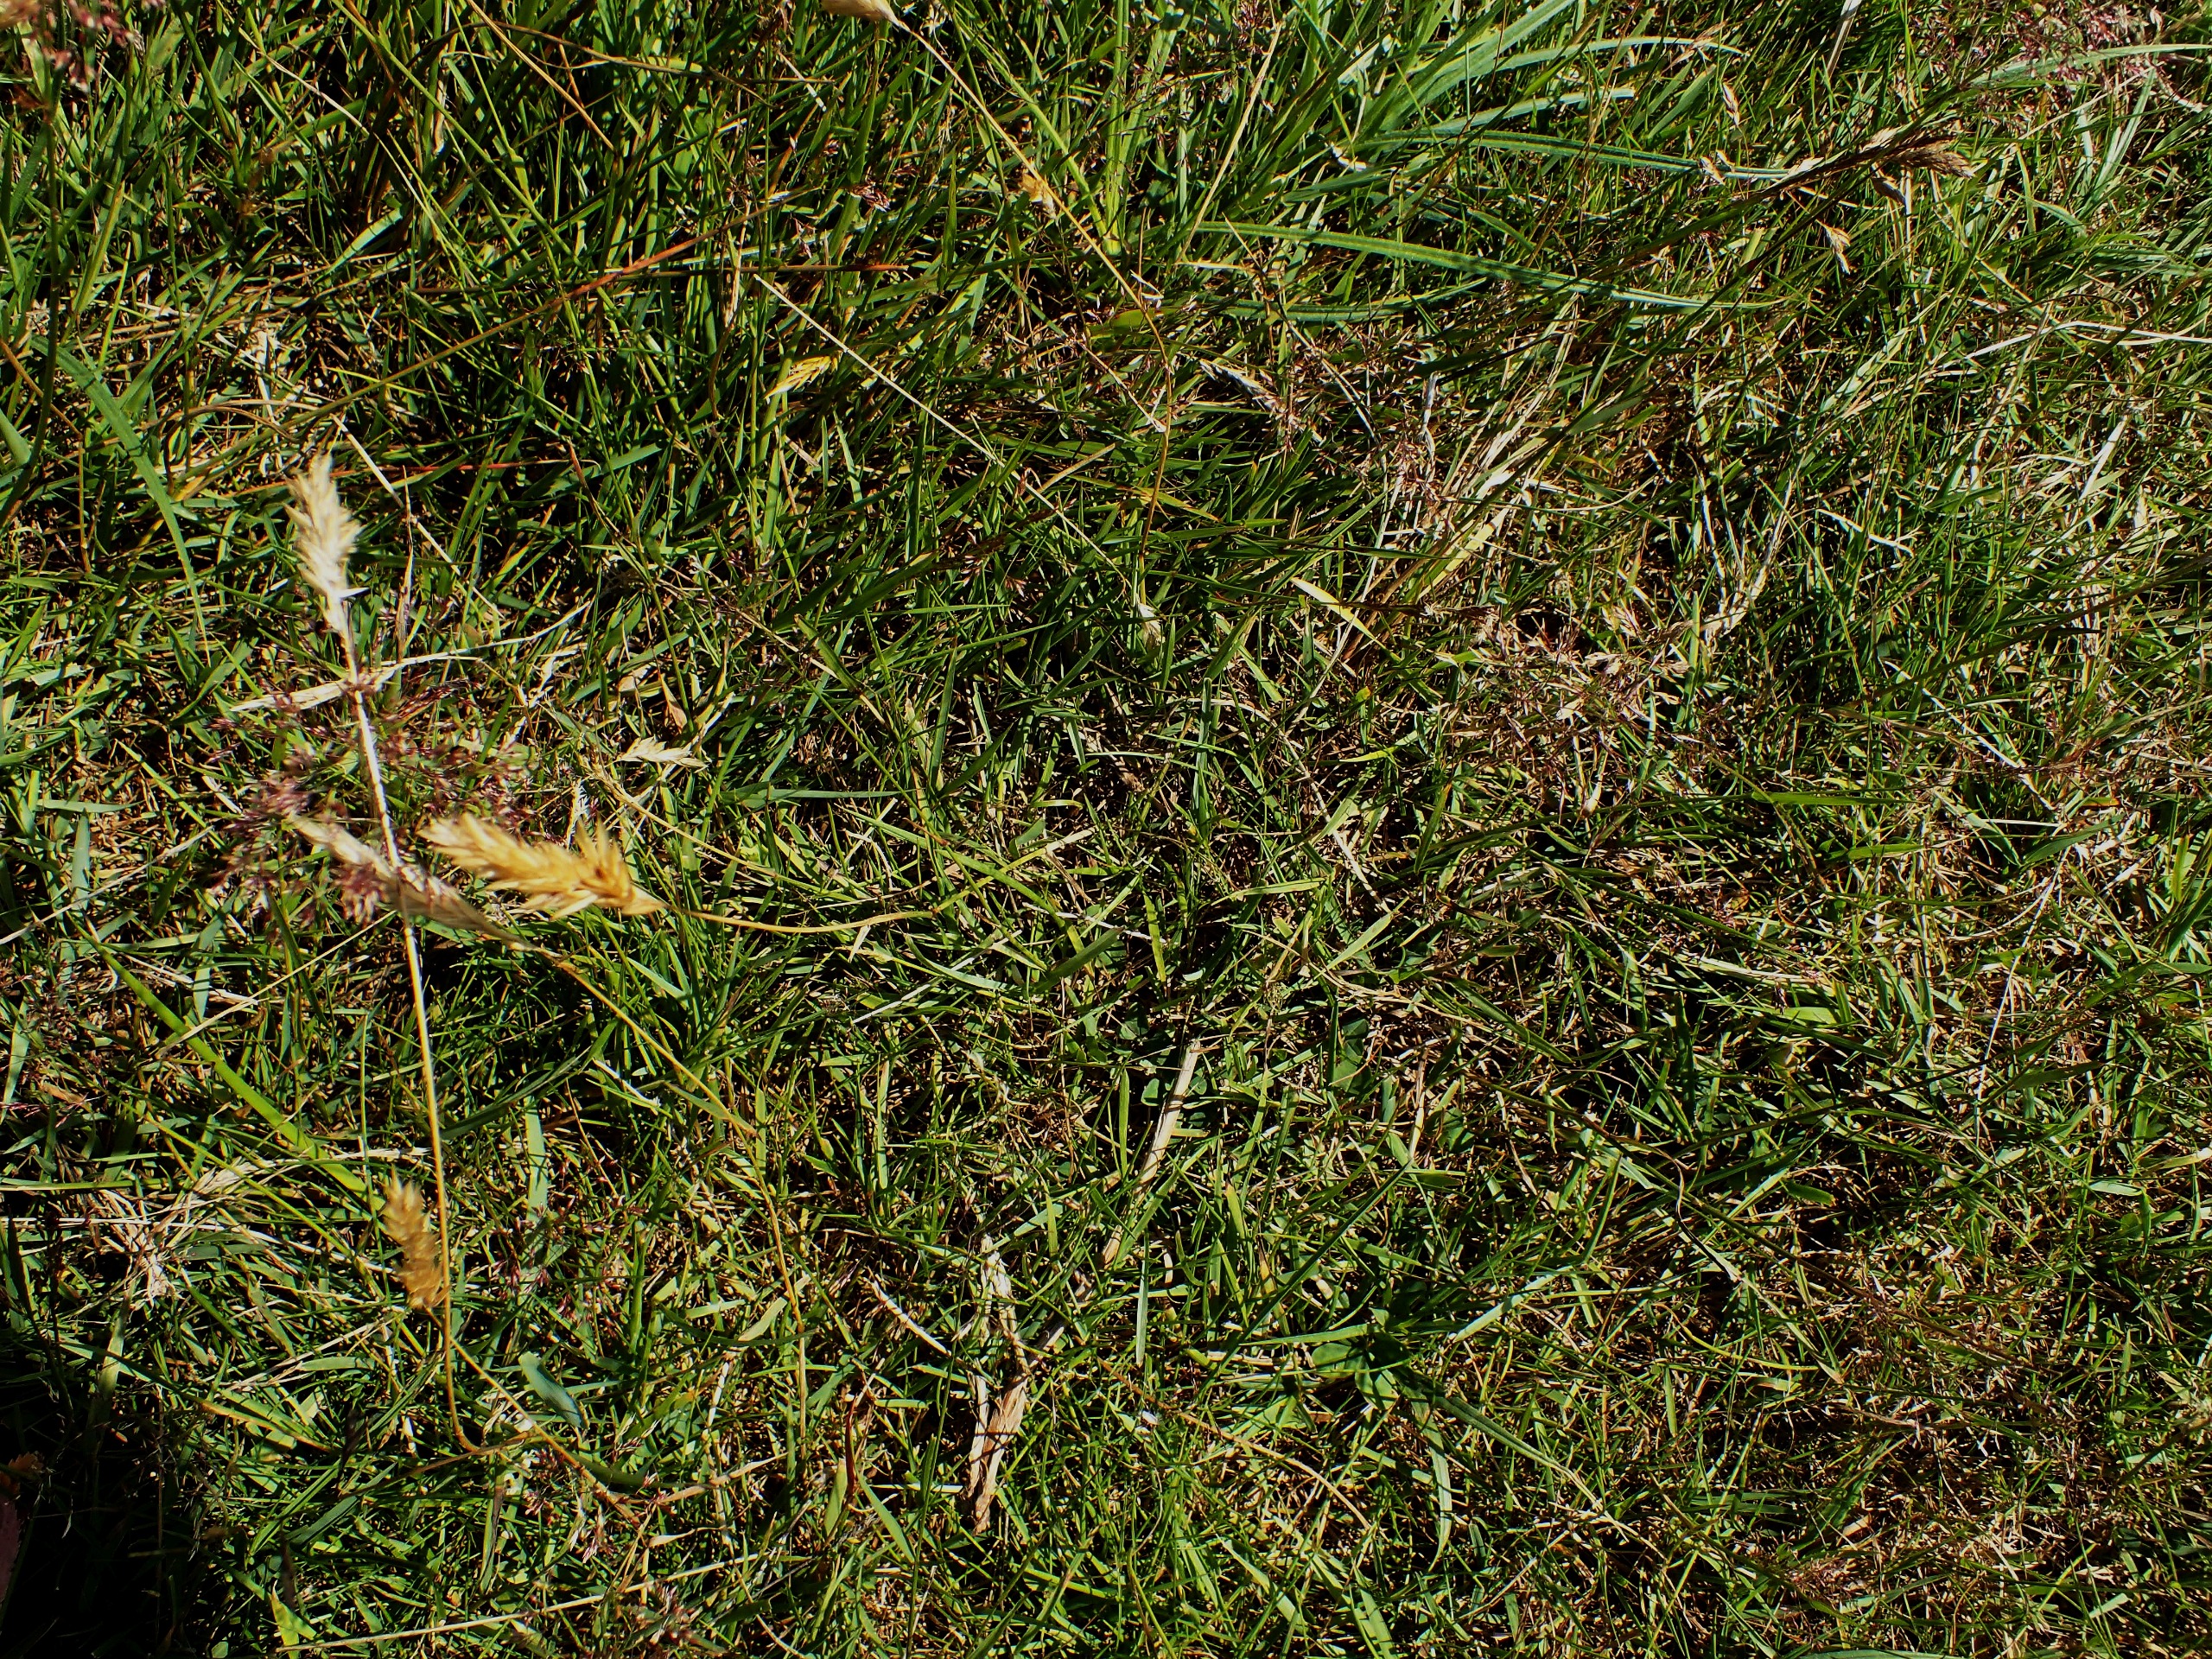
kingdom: Plantae
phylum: Tracheophyta
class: Liliopsida
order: Poales
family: Poaceae
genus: Anthoxanthum
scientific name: Anthoxanthum odoratum
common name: Vellugtende gulaks
